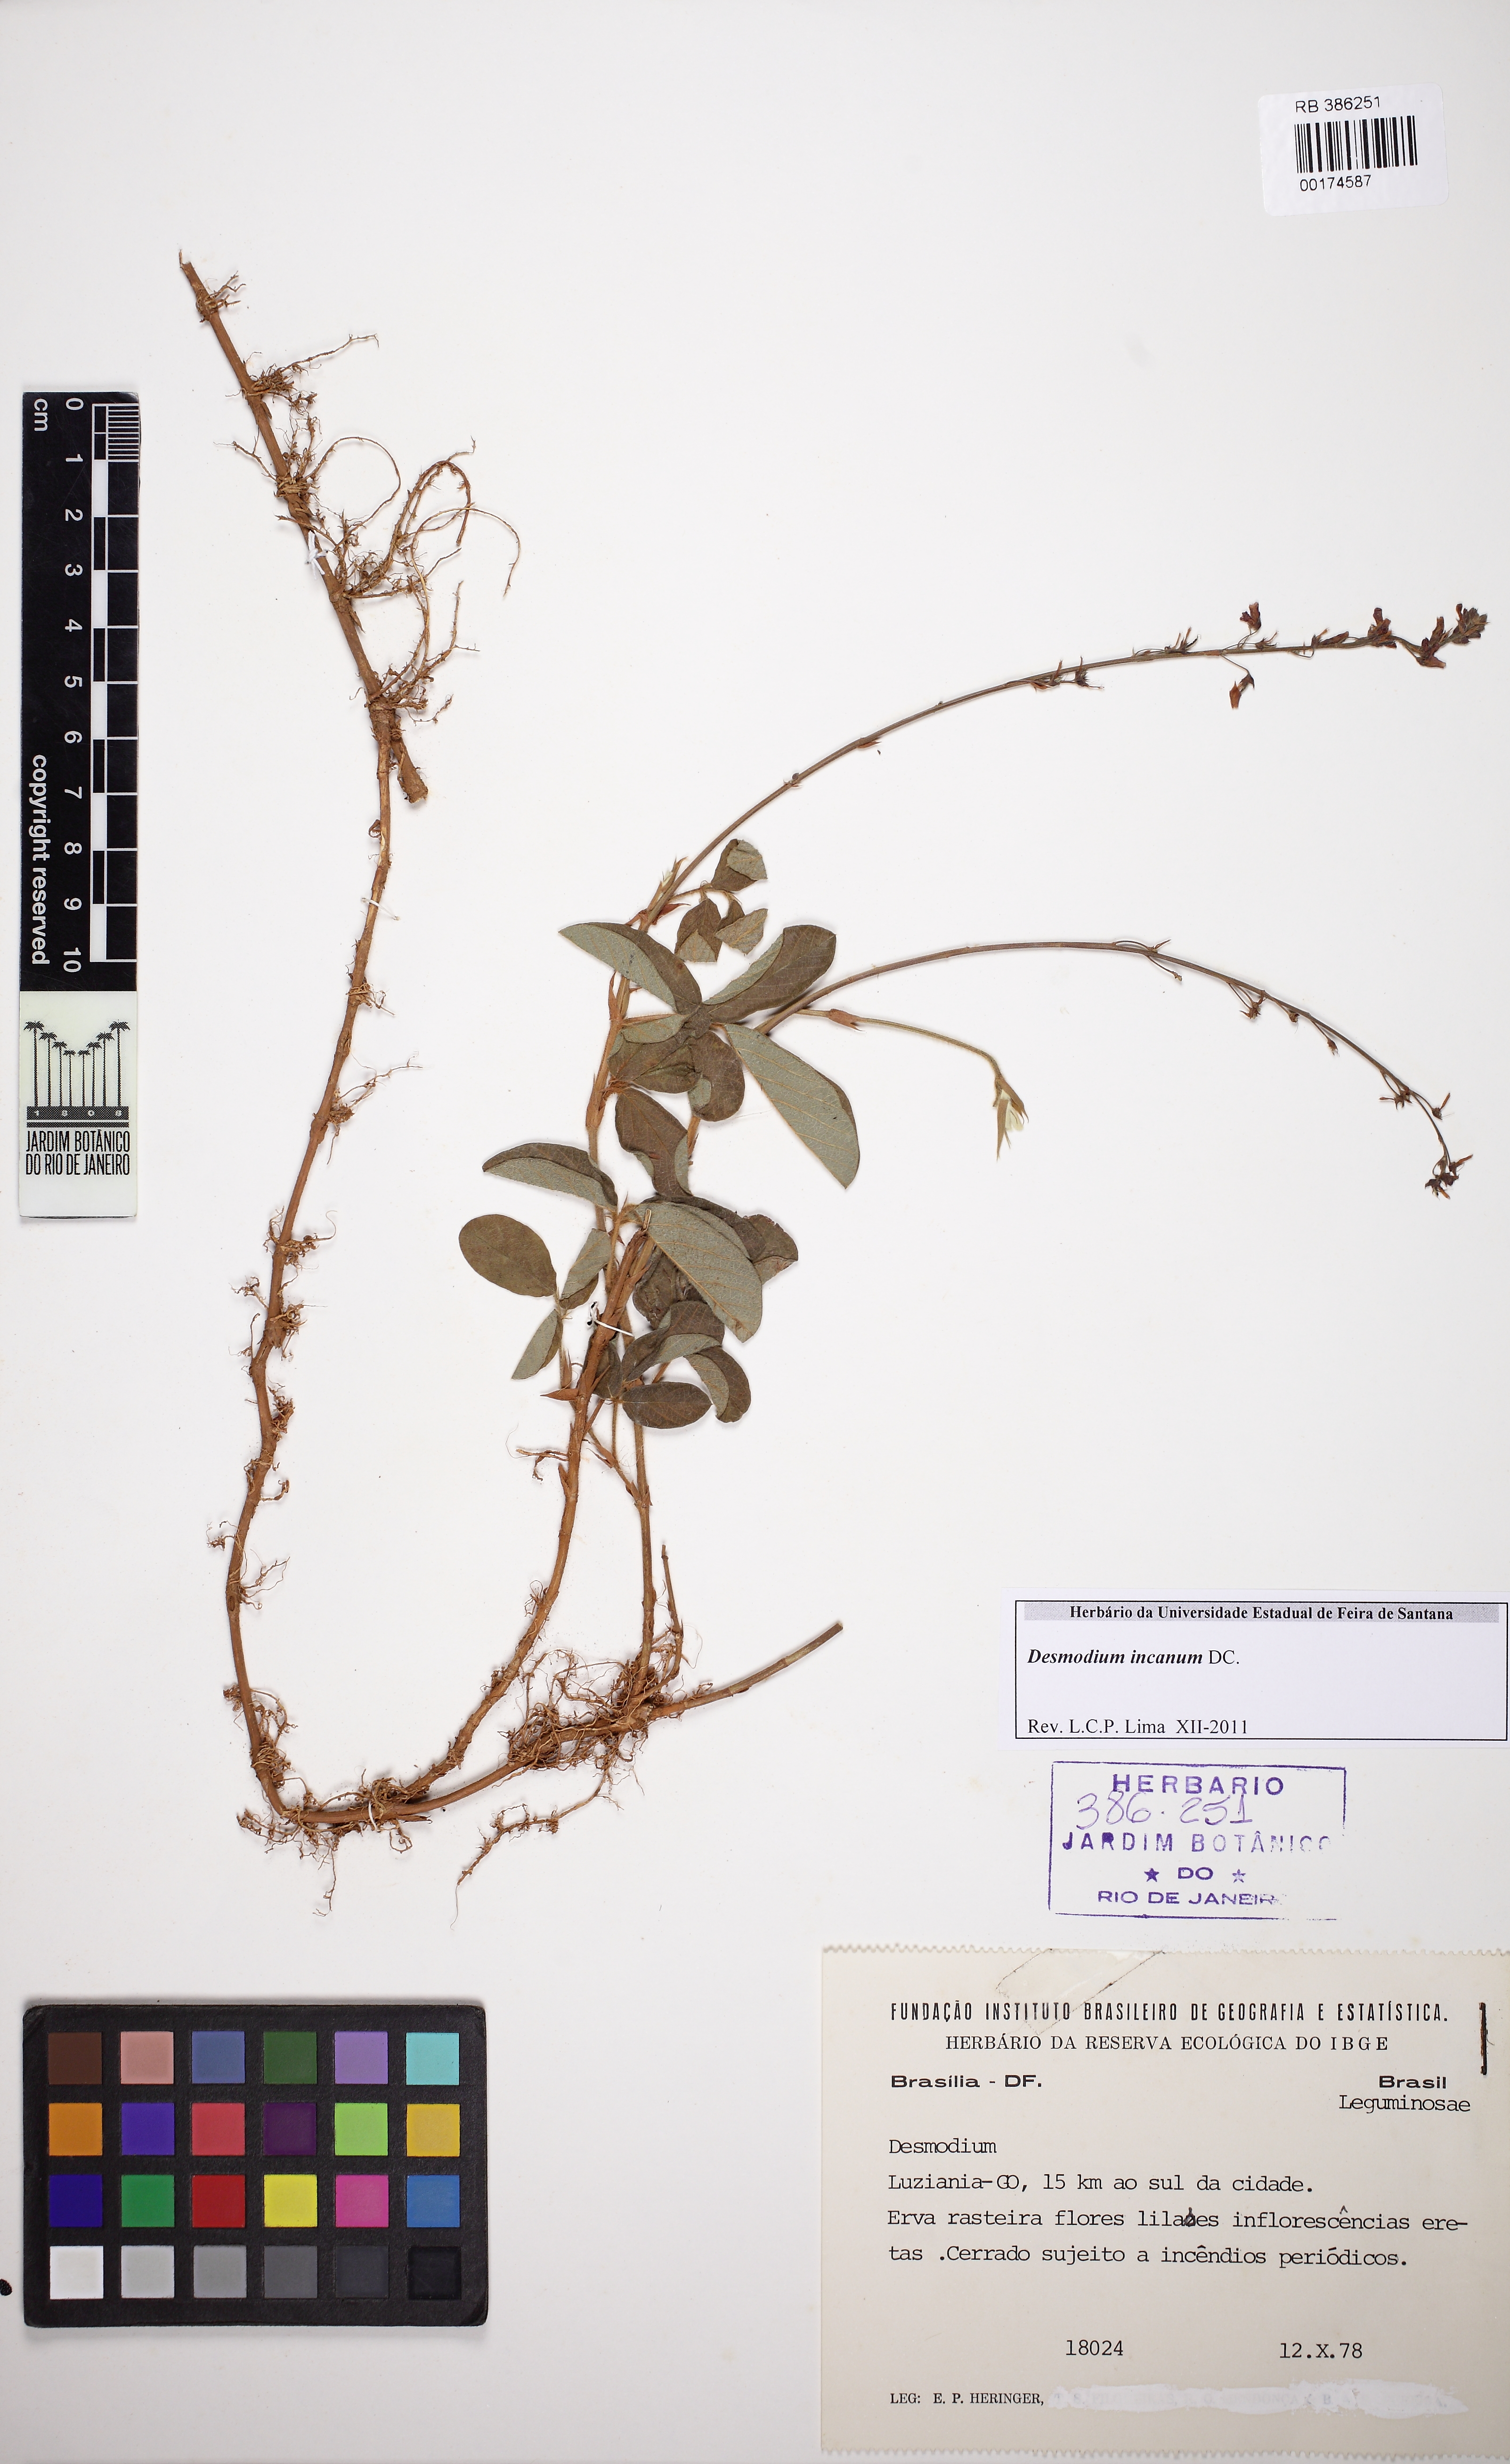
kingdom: Plantae
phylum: Tracheophyta
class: Magnoliopsida
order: Fabales
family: Fabaceae
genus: Desmodium
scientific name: Desmodium incanum
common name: Tickclover
